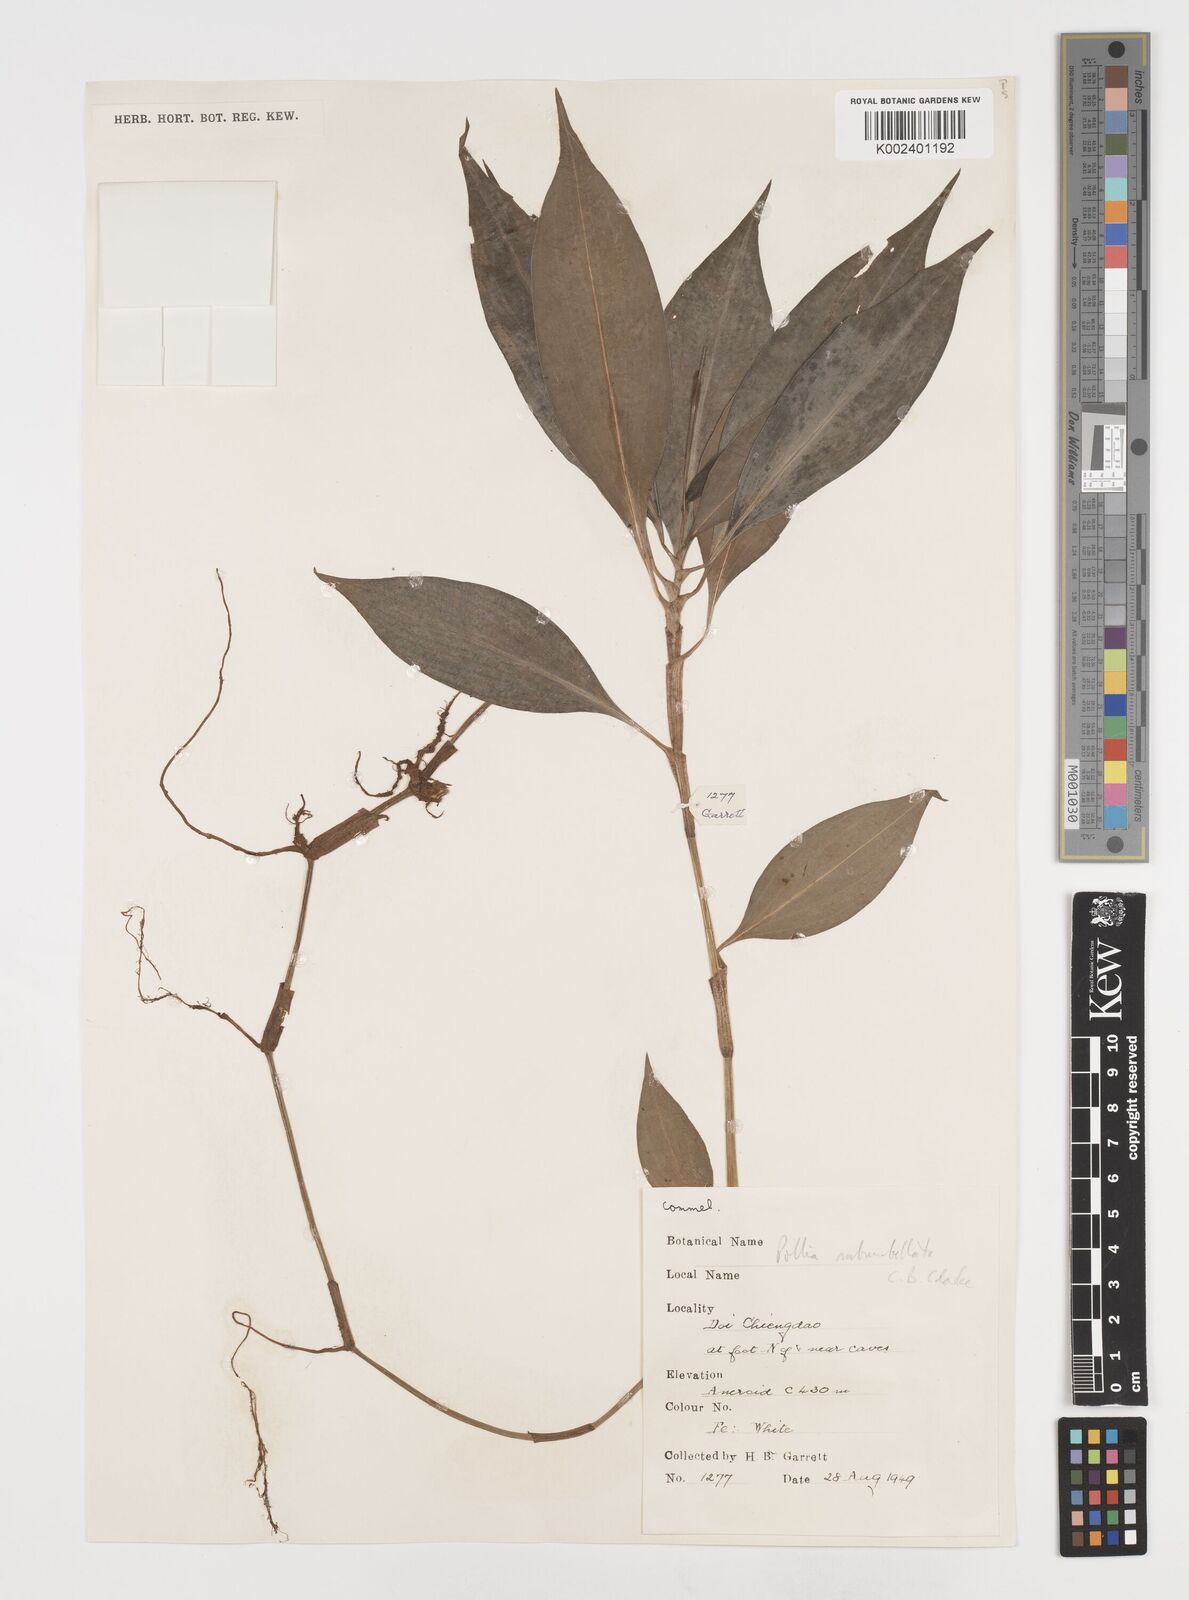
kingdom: Plantae
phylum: Tracheophyta
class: Liliopsida
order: Commelinales
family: Commelinaceae
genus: Pollia
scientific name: Pollia secundiflora
